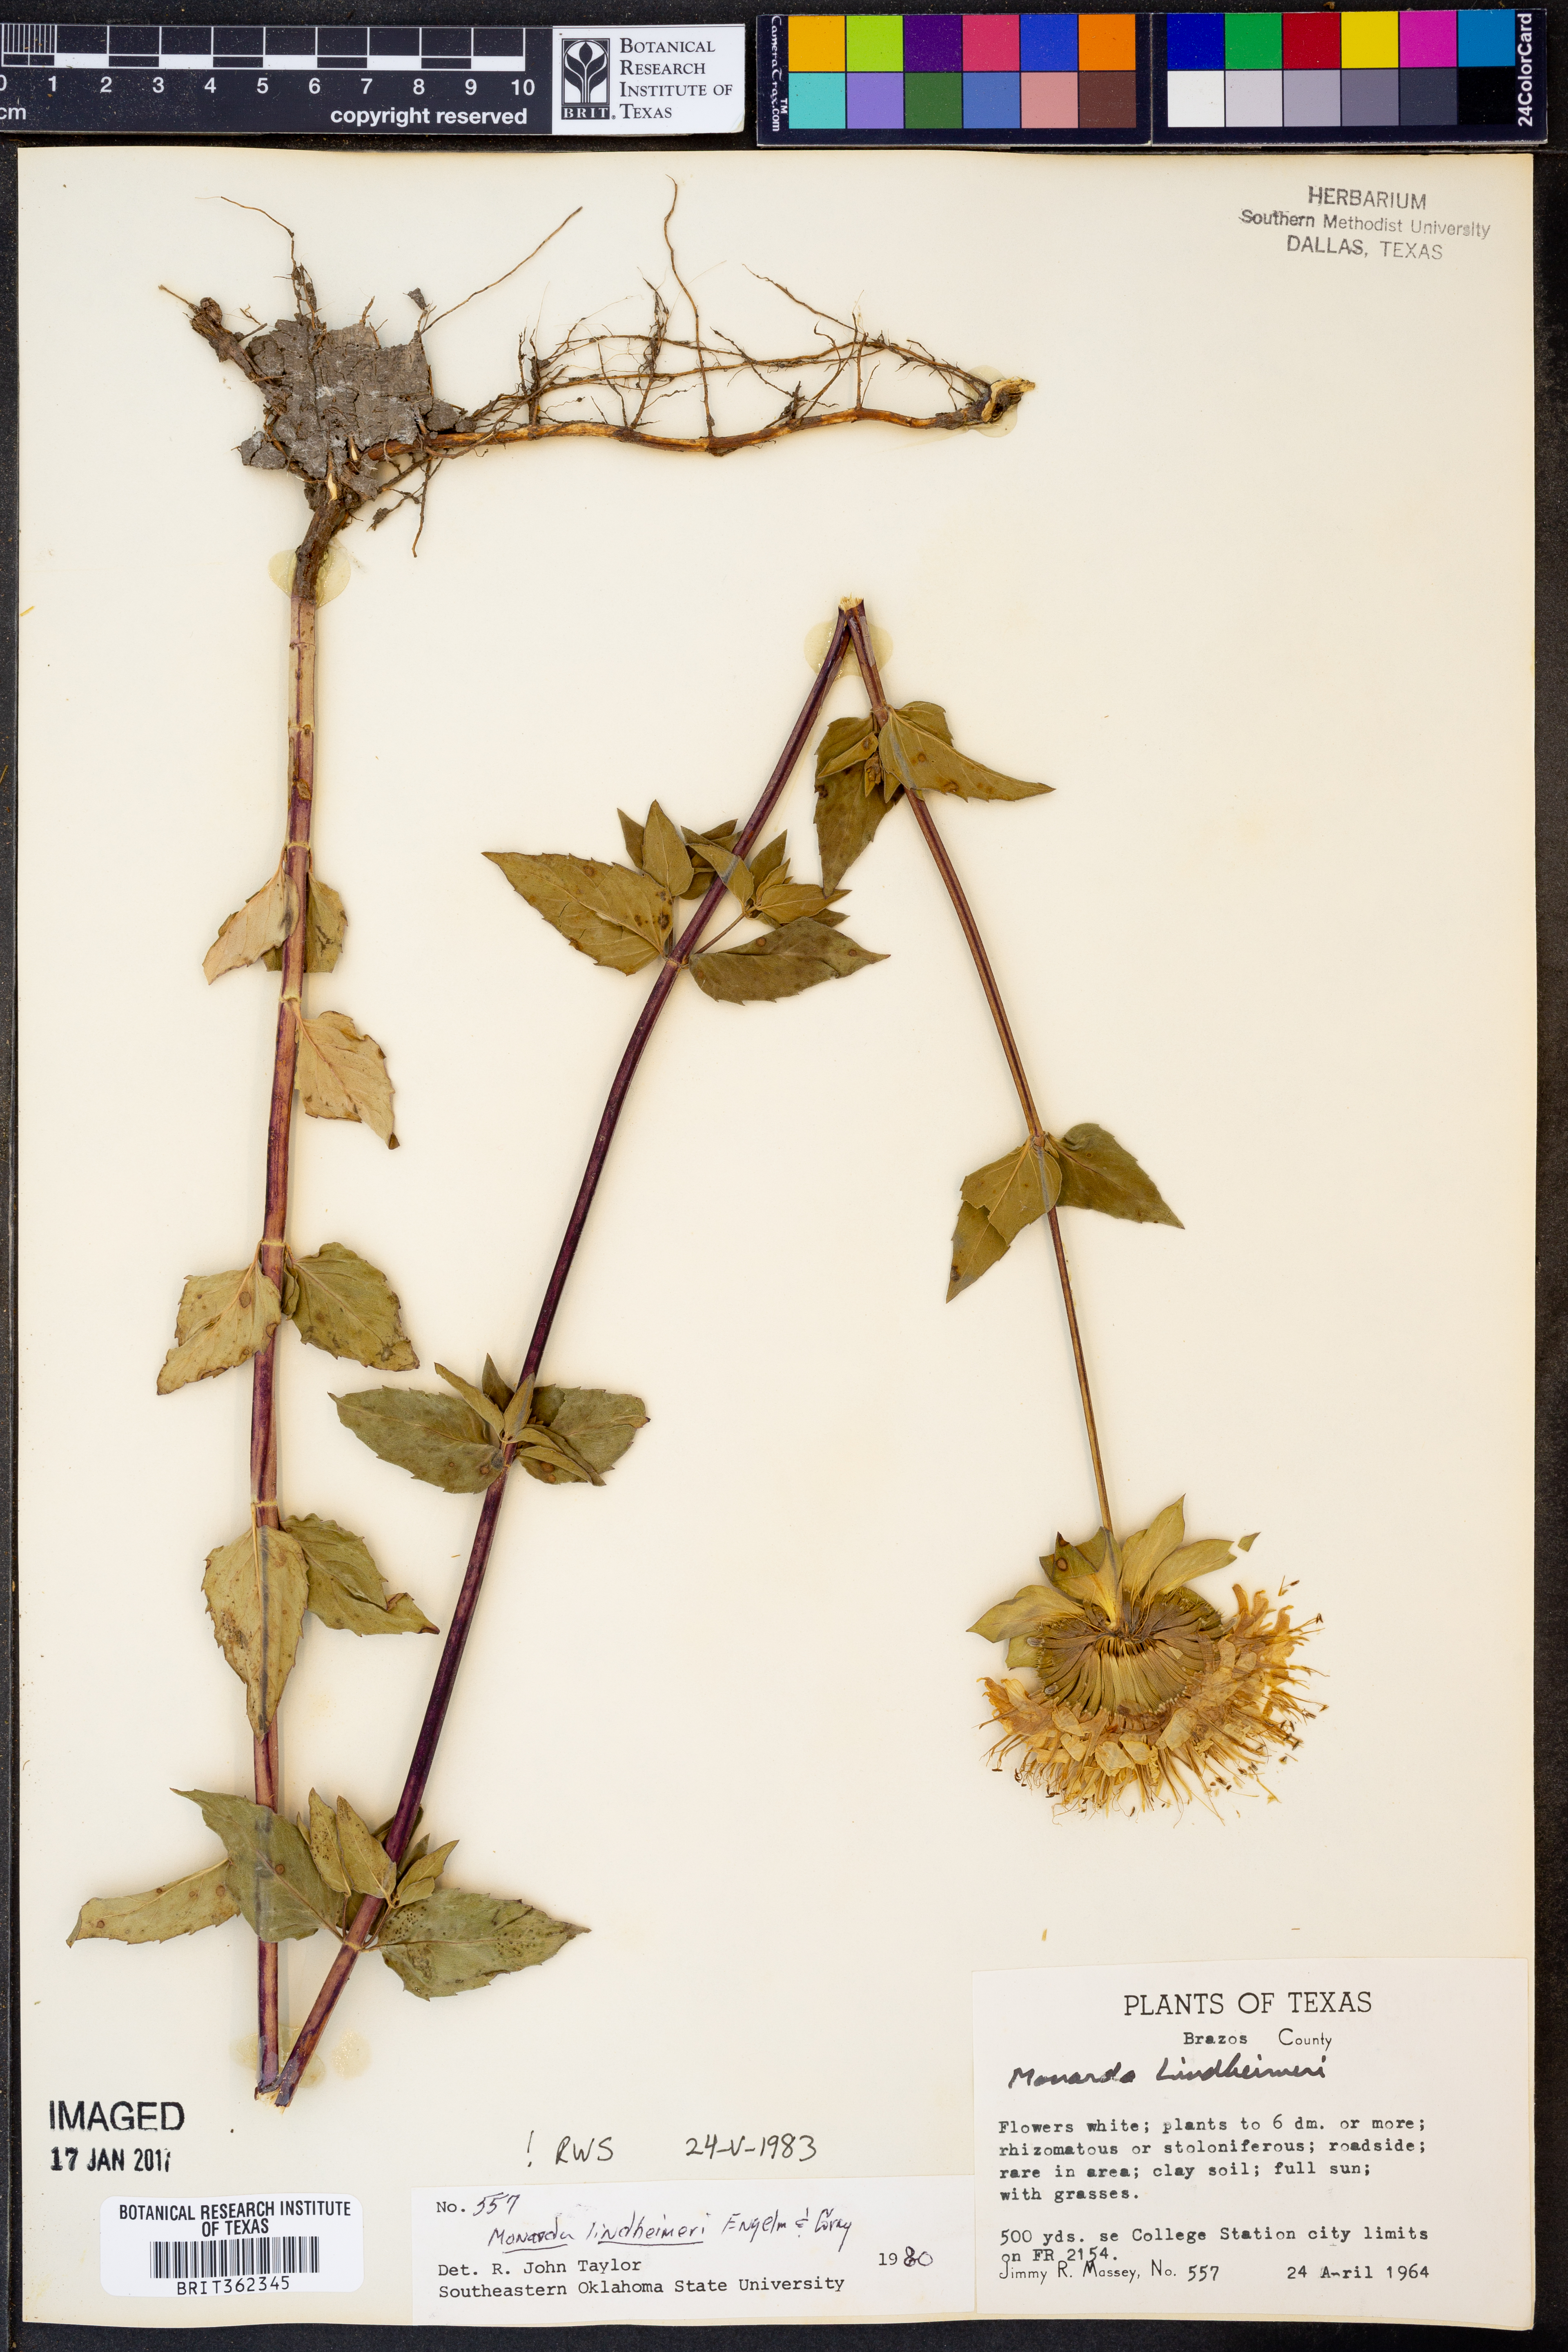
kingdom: Plantae
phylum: Tracheophyta
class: Magnoliopsida
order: Lamiales
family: Lamiaceae
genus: Monarda
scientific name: Monarda lindheimeri
